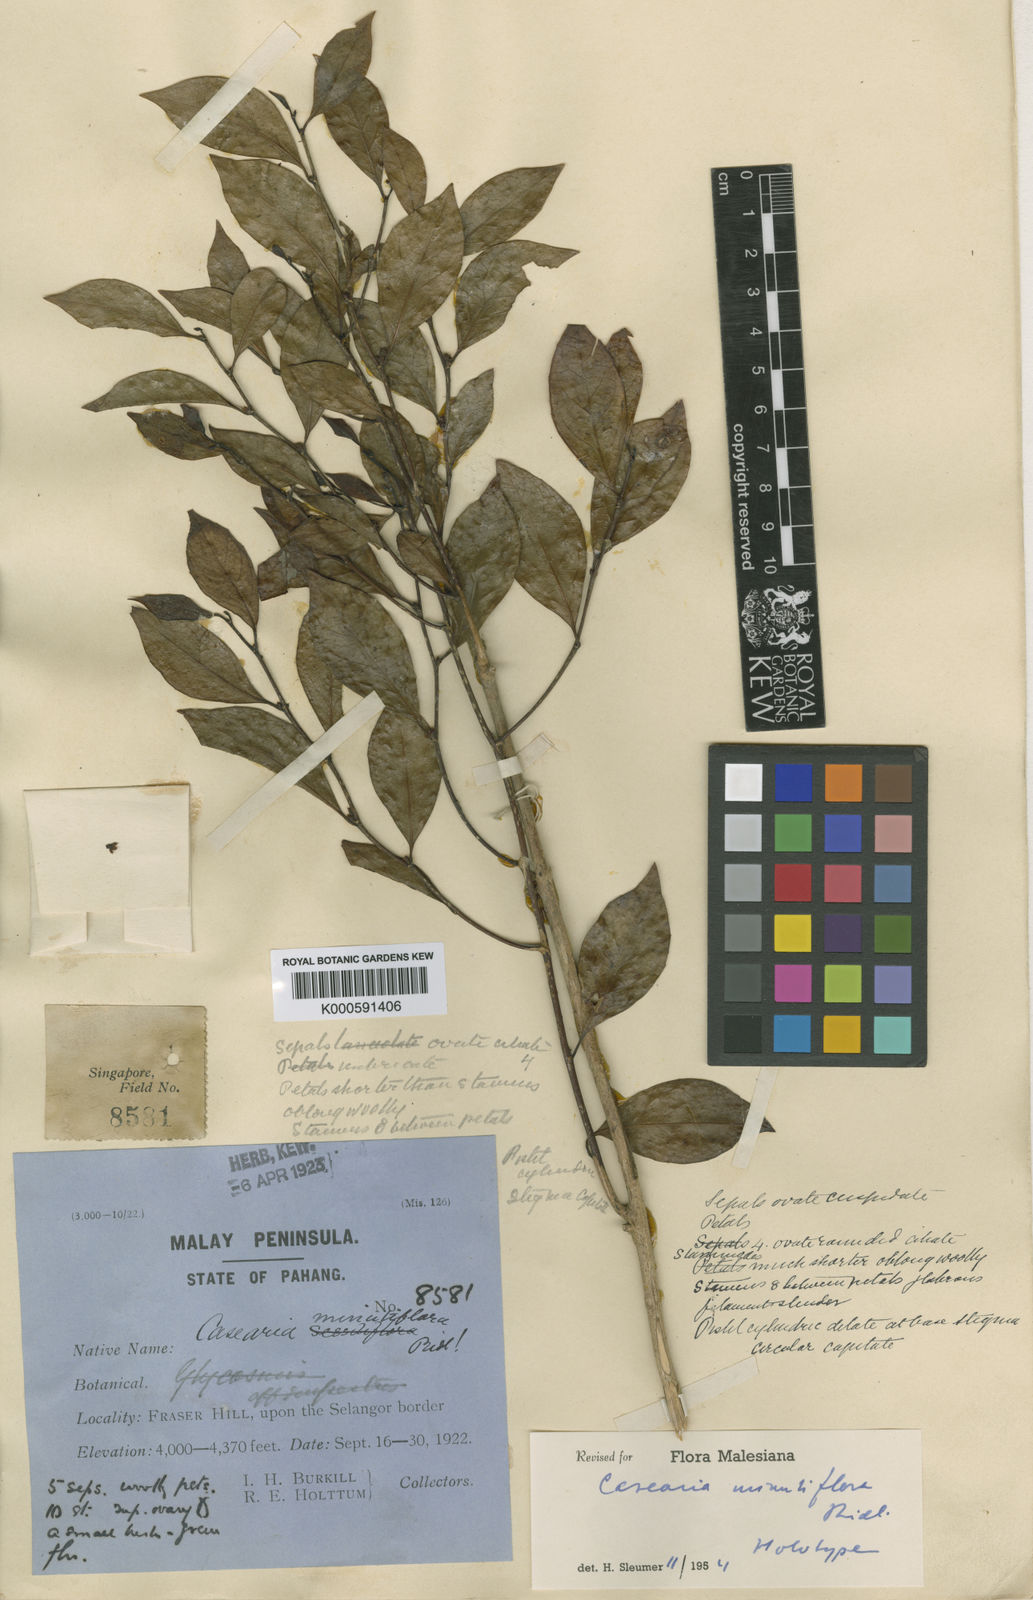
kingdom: Plantae
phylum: Tracheophyta
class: Magnoliopsida
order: Malpighiales
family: Salicaceae
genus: Casearia
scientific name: Casearia minutiflora
